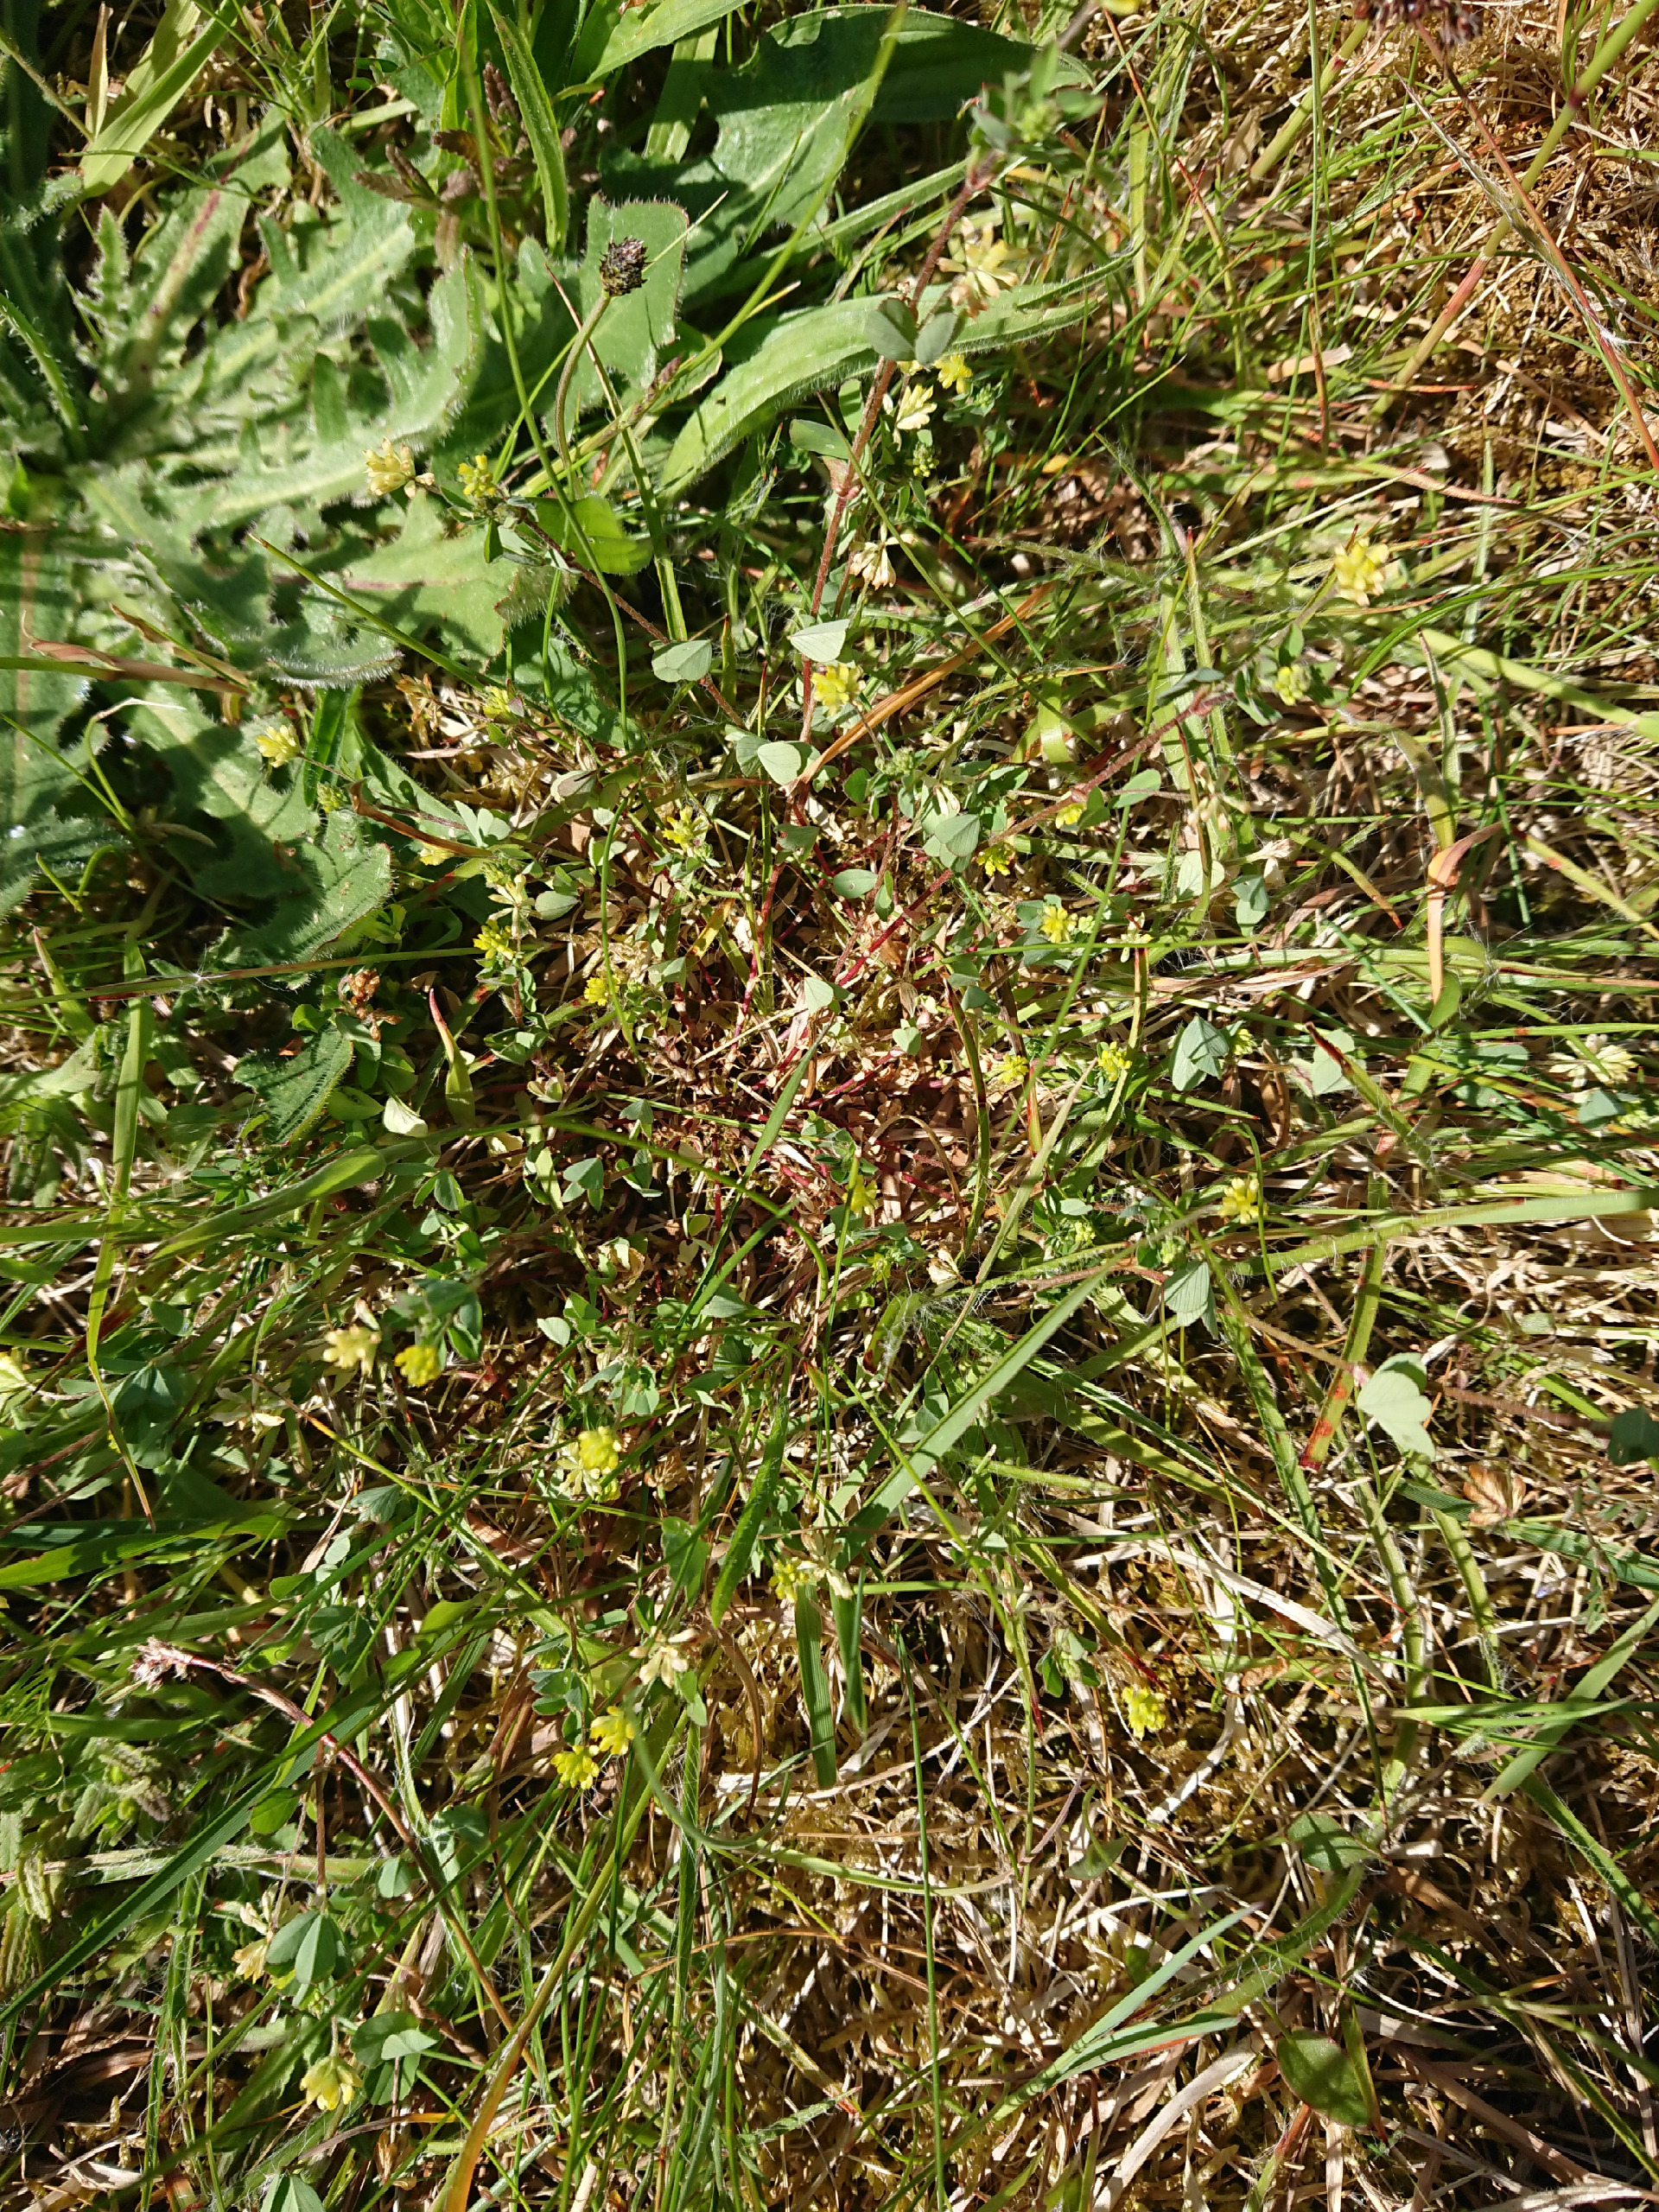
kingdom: Plantae
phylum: Tracheophyta
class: Magnoliopsida
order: Fabales
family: Fabaceae
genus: Trifolium
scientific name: Trifolium dubium
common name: Fin kløver
